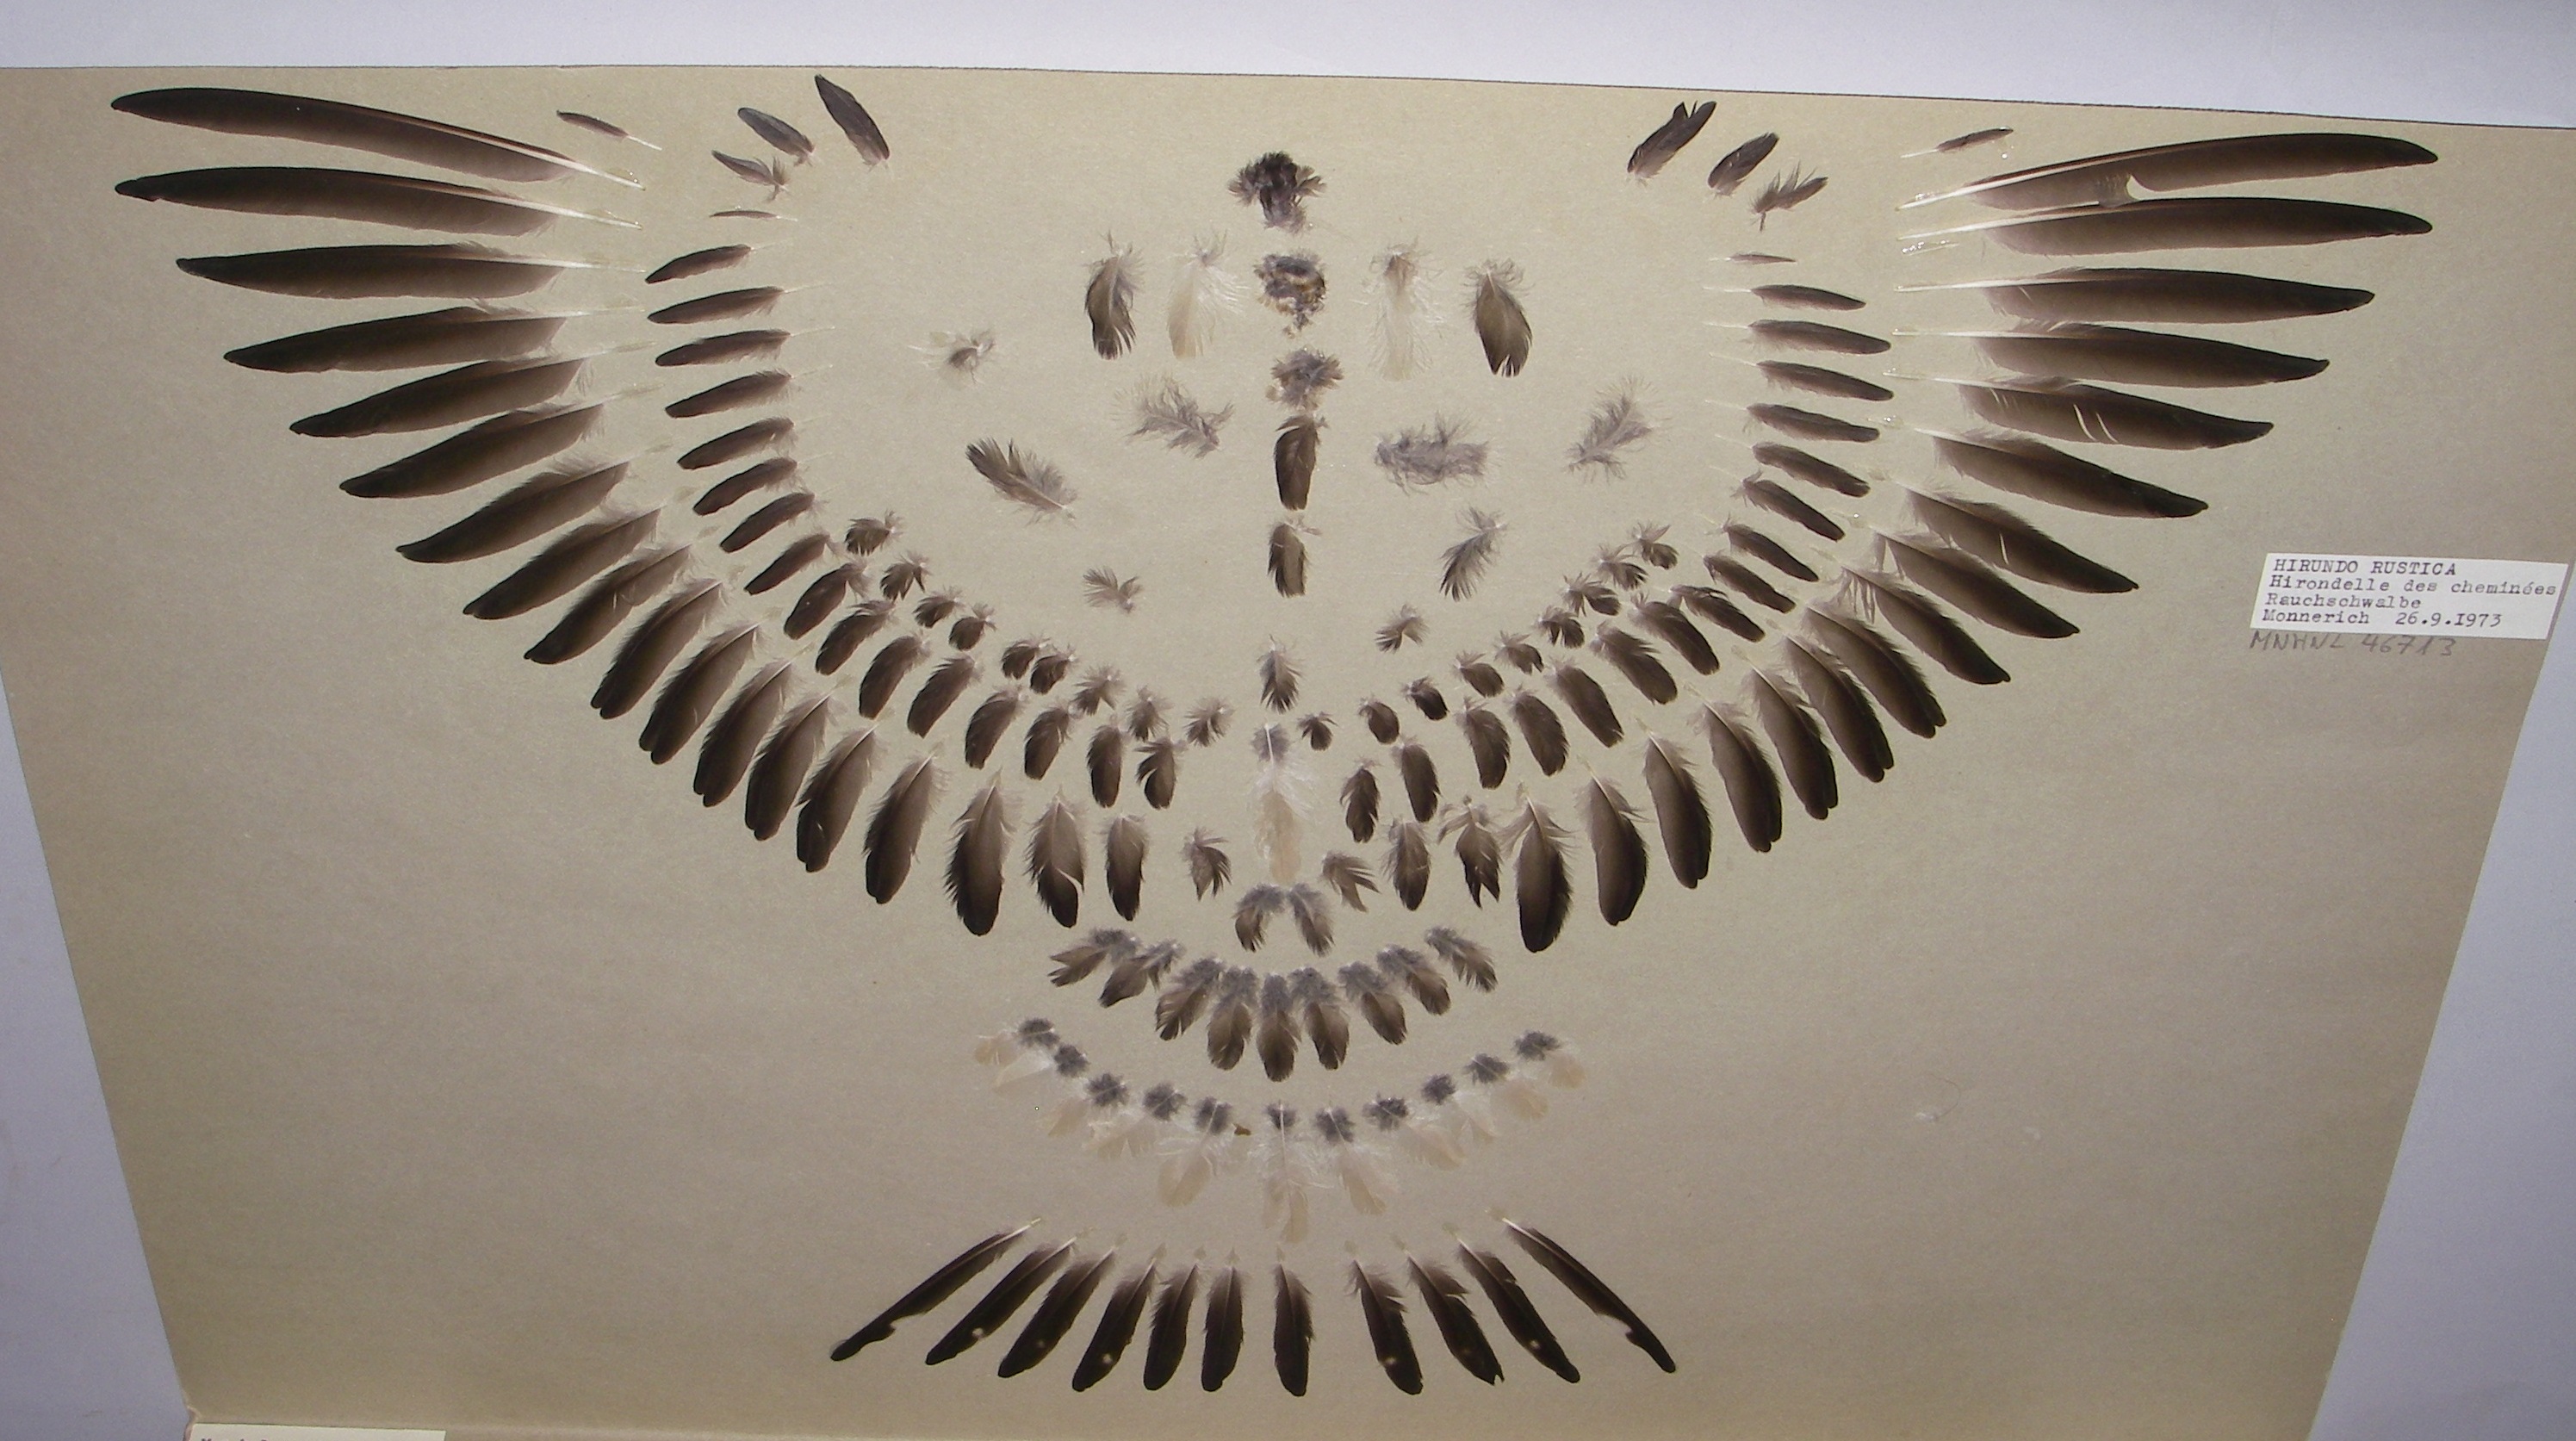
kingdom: Animalia
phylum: Chordata
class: Aves
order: Passeriformes
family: Hirundinidae
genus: Hirundo
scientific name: Hirundo rustica
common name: Barn swallow
